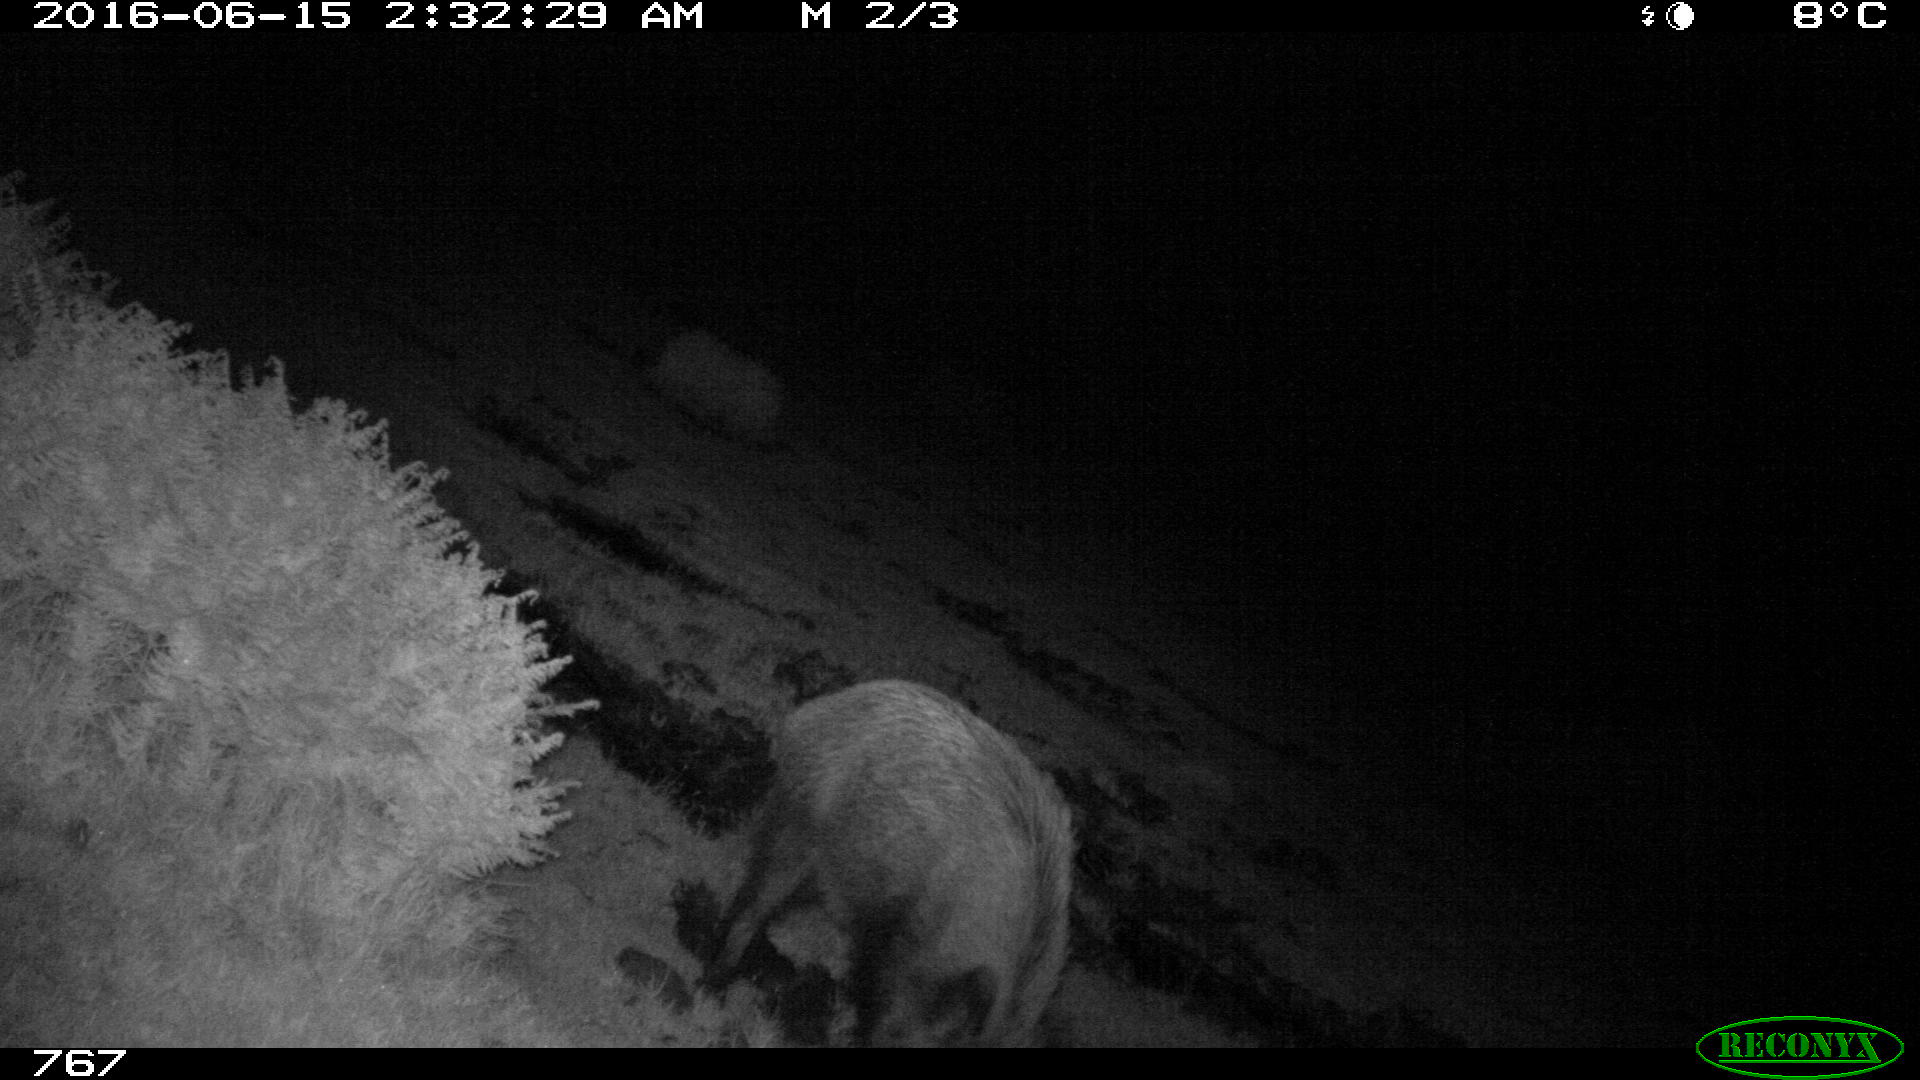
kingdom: Animalia
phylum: Chordata
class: Mammalia
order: Artiodactyla
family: Suidae
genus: Sus
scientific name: Sus scrofa
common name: Wild boar
